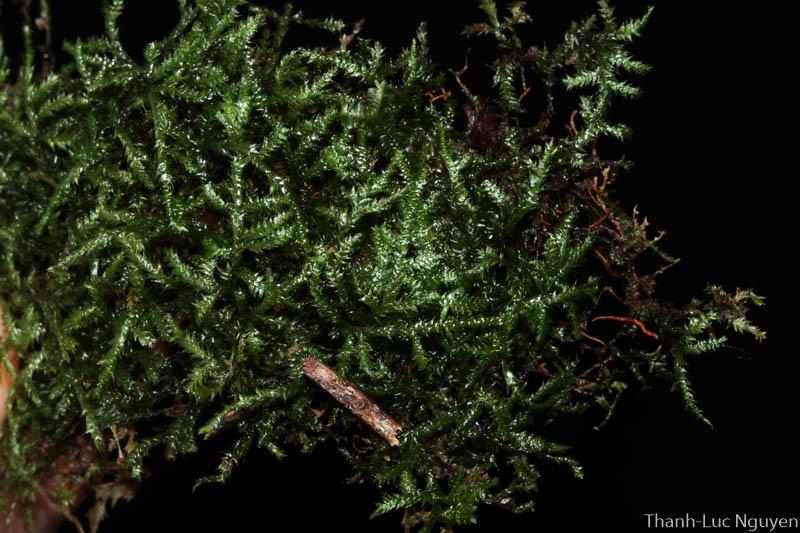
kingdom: Plantae
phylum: Bryophyta
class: Bryopsida
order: Hypnales
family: Pylaisiadelphaceae
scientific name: Pylaisiadelphaceae
